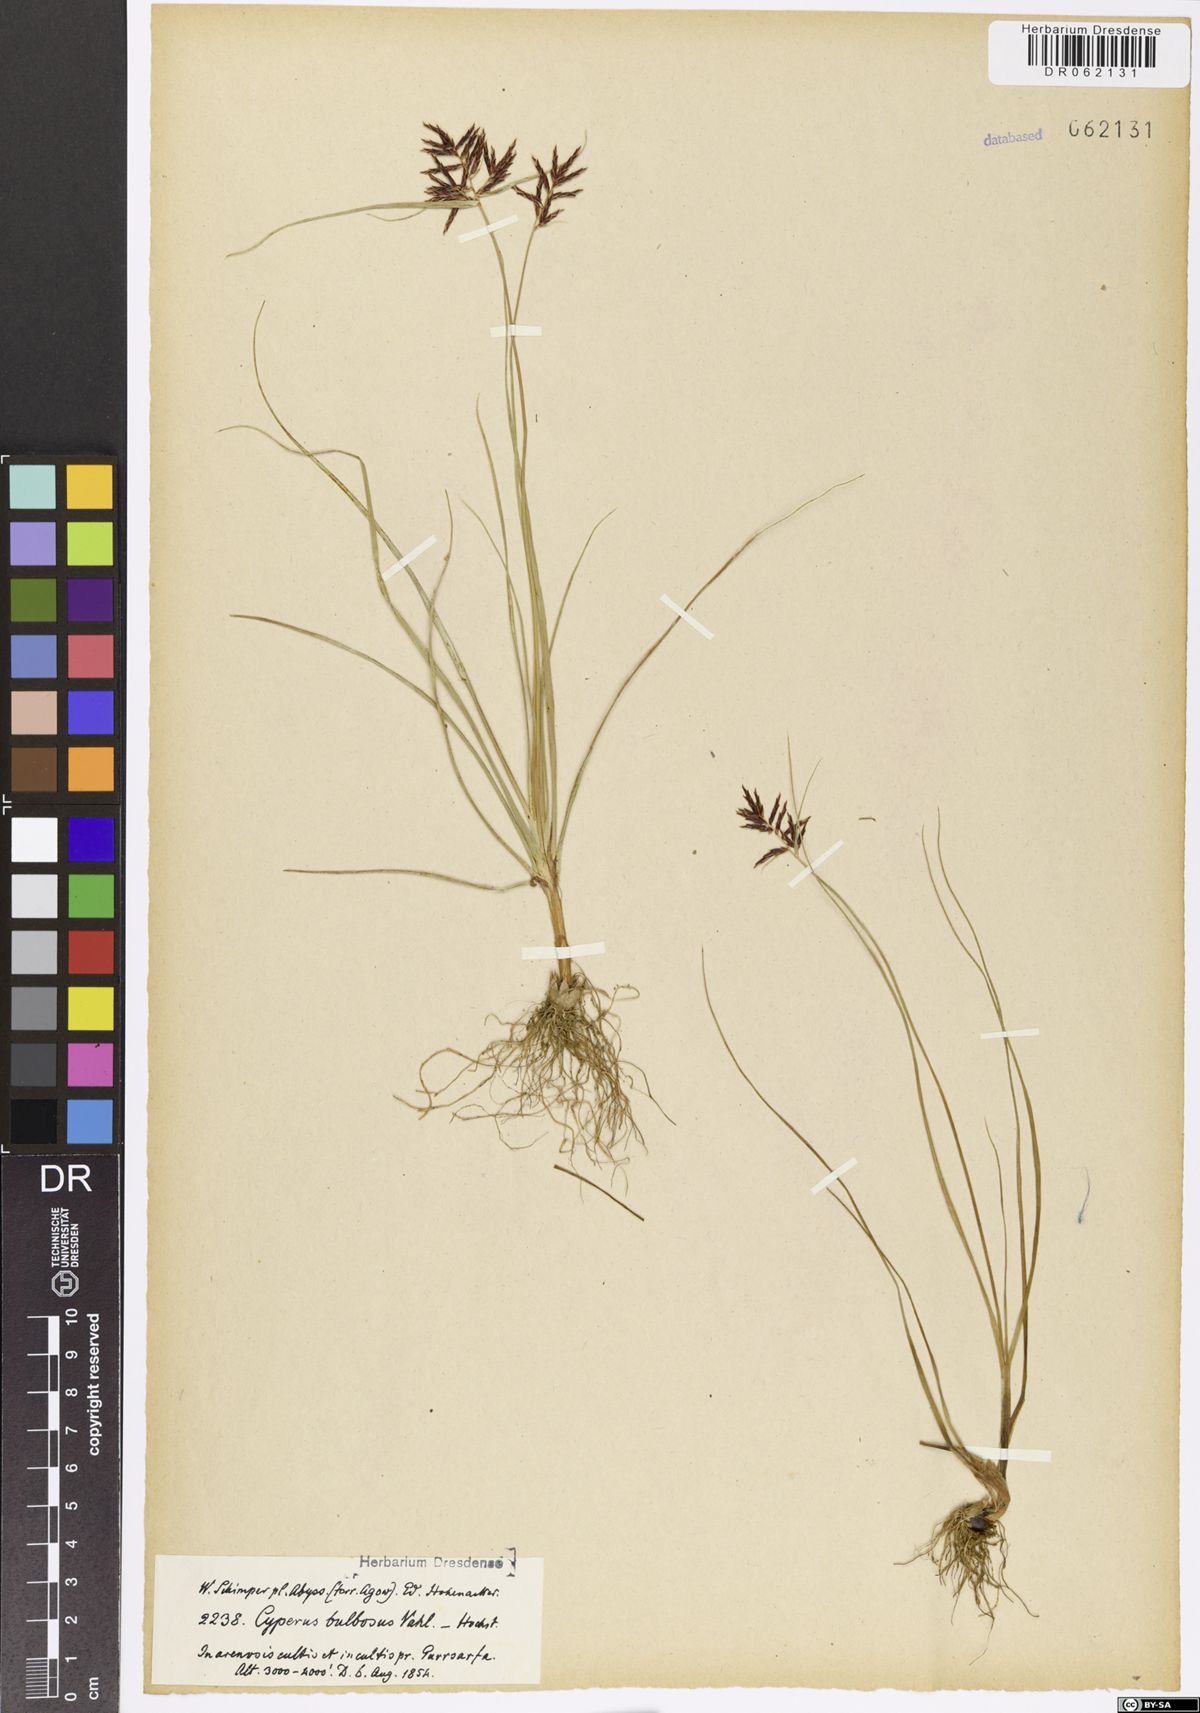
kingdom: Plantae
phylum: Tracheophyta
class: Liliopsida
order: Poales
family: Cyperaceae
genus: Cyperus
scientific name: Cyperus bulbosus
